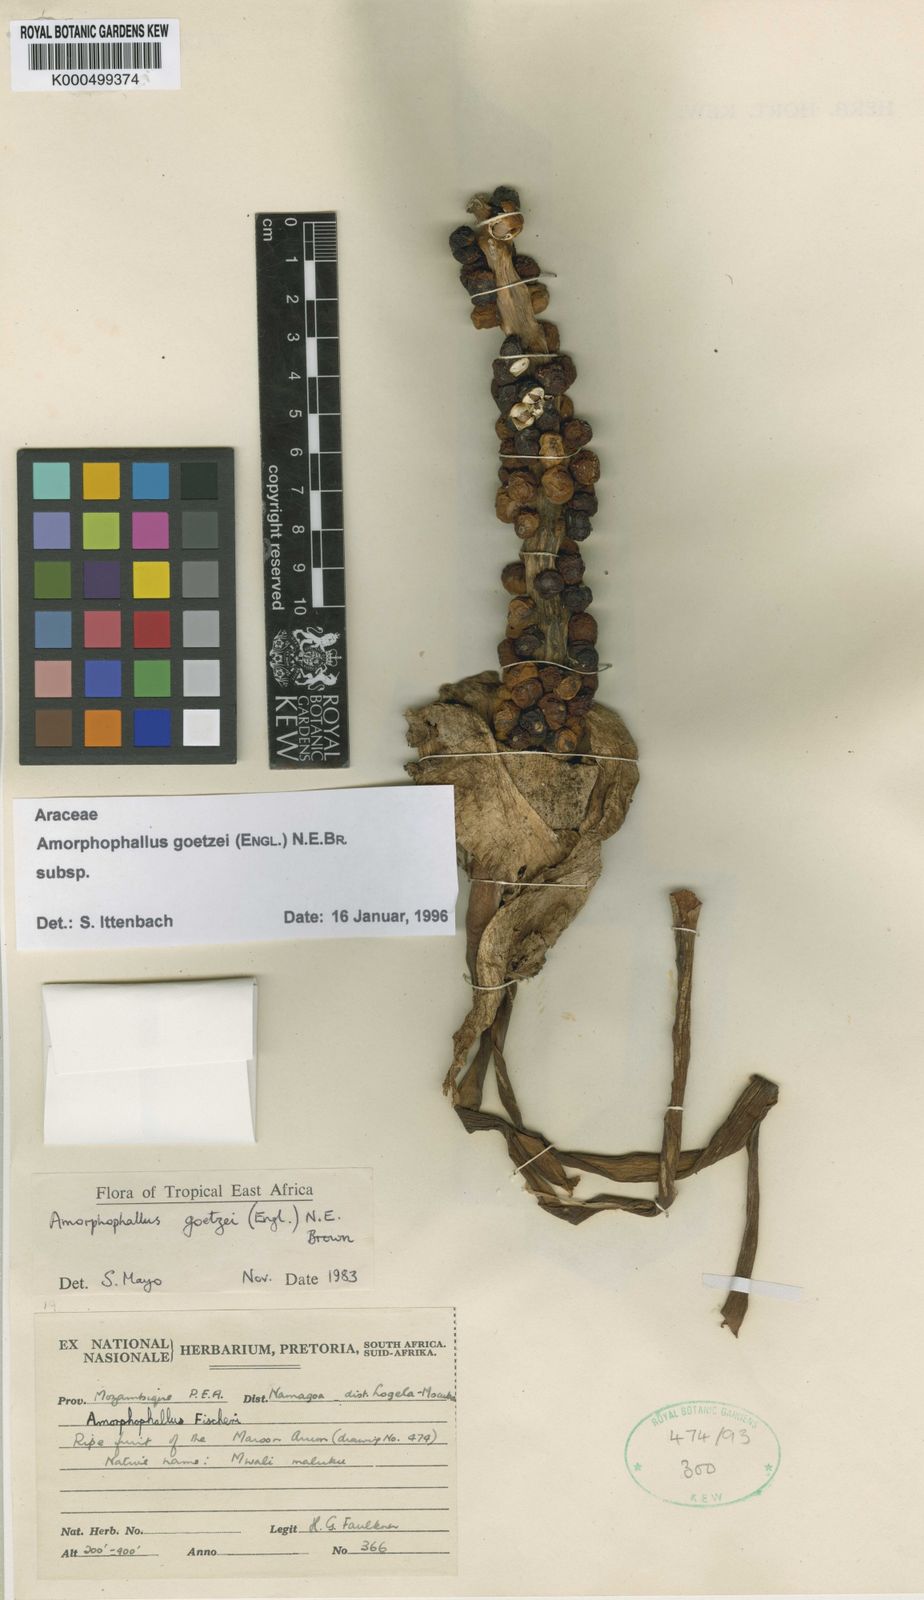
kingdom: Plantae
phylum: Tracheophyta
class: Liliopsida
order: Alismatales
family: Araceae
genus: Amorphophallus
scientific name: Amorphophallus
